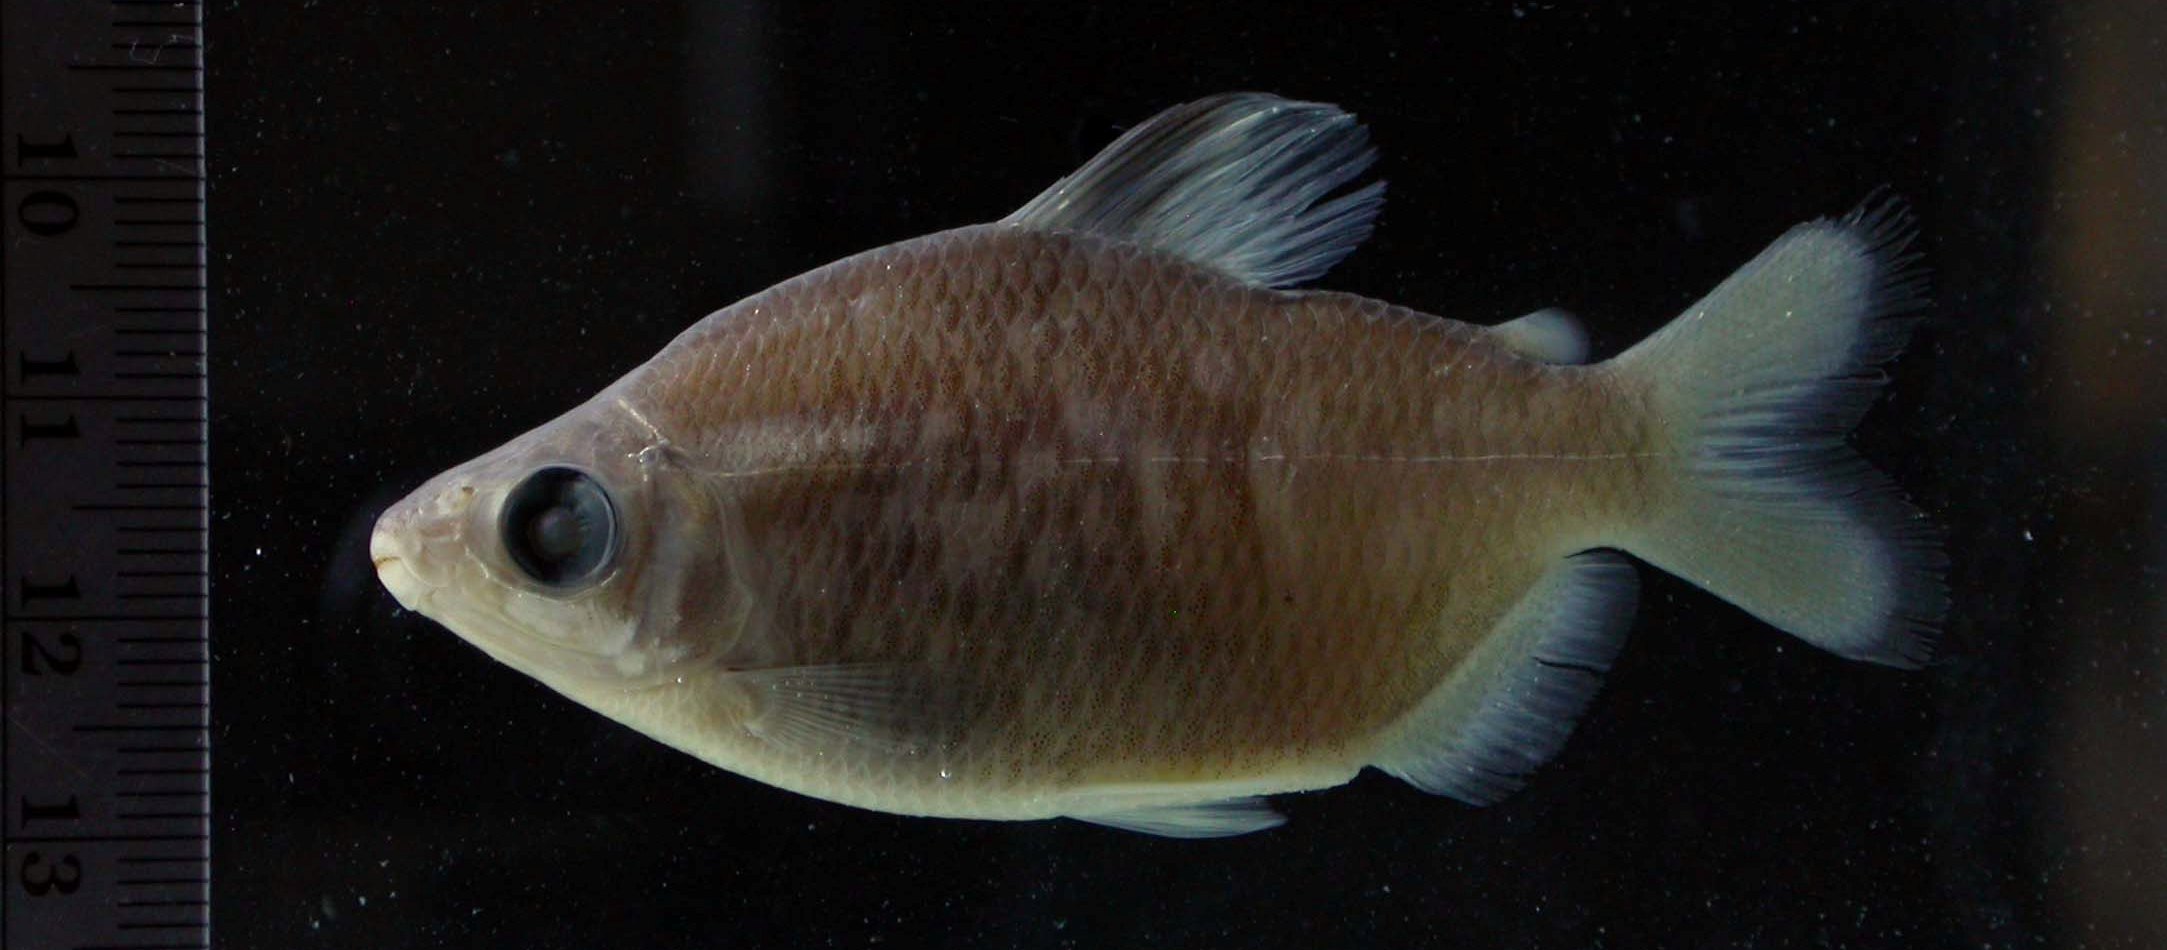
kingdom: Animalia
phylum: Chordata
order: Characiformes
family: Distichodontidae
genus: Distichodus
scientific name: Distichodus affinis
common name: Silver distichodus
